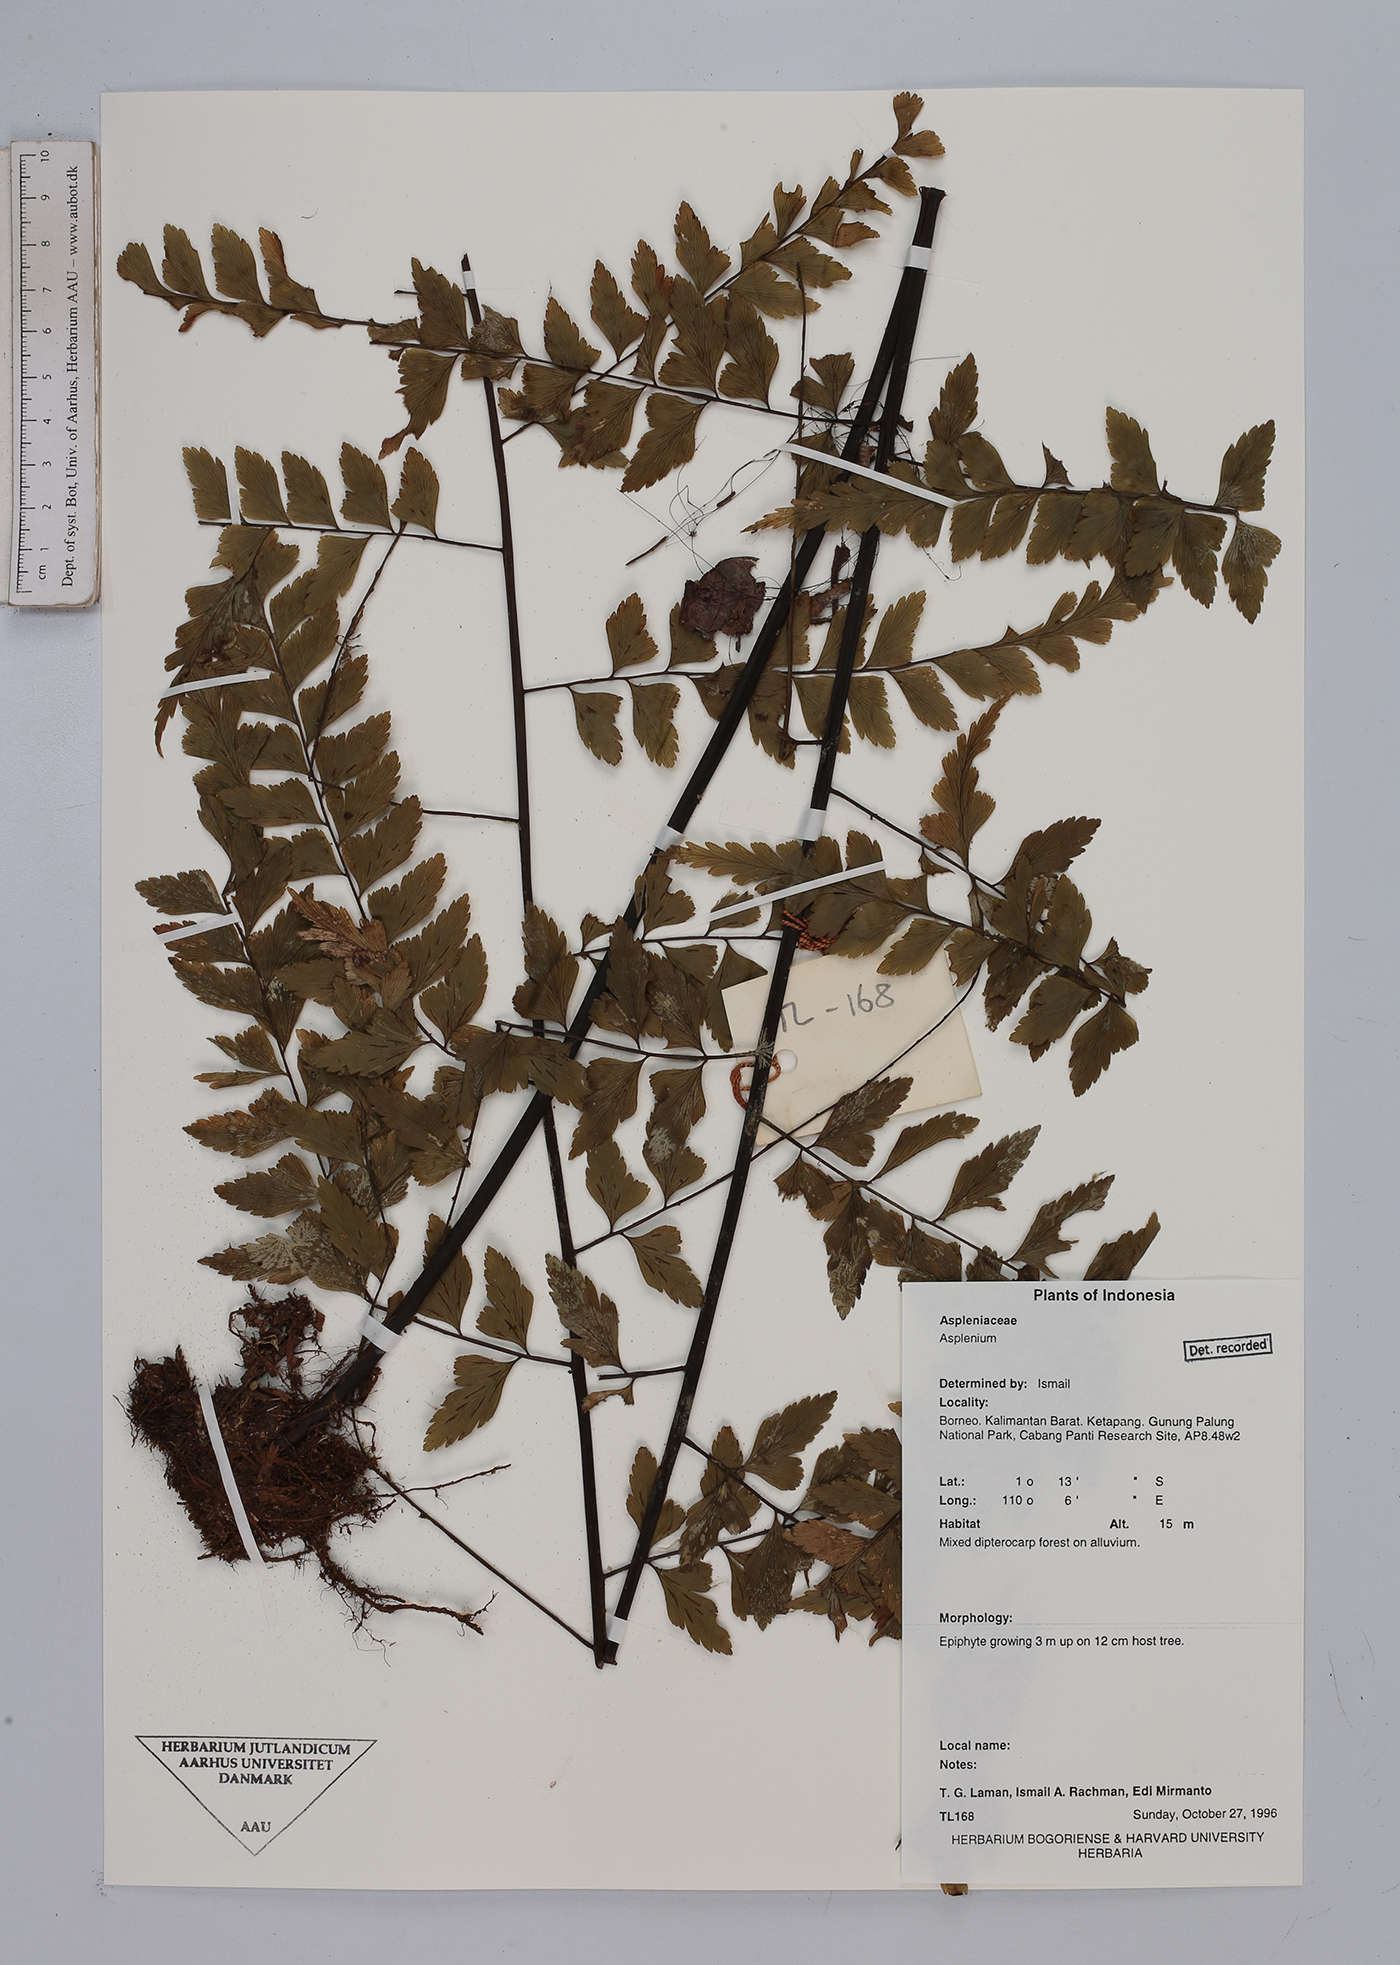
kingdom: Plantae
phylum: Tracheophyta
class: Polypodiopsida
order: Polypodiales
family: Aspleniaceae
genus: Asplenium
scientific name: Asplenium
